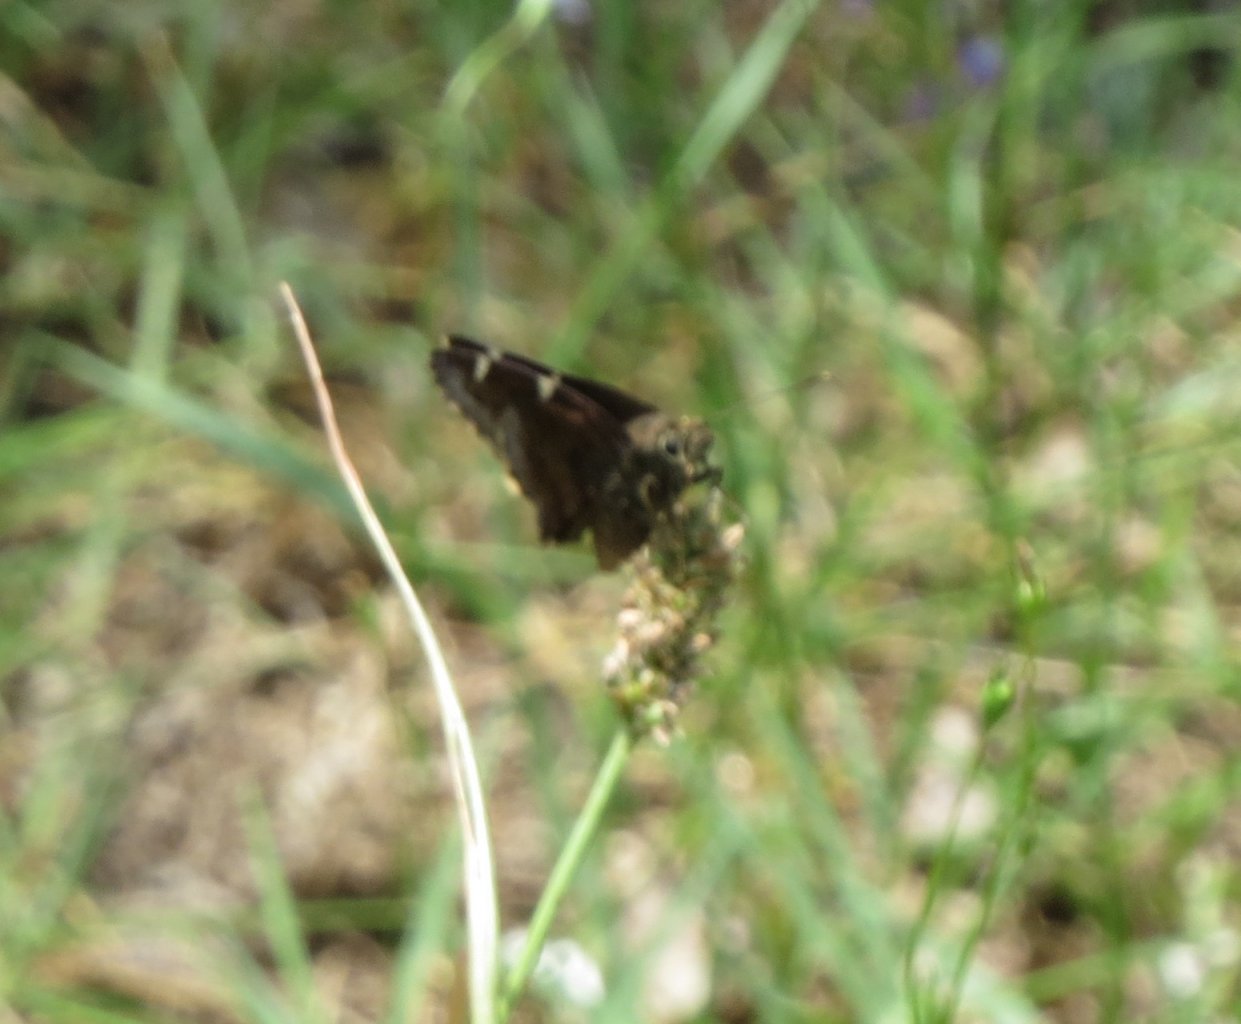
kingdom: Animalia
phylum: Arthropoda
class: Insecta
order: Lepidoptera
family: Hesperiidae
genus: Autochton
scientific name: Autochton
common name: Northern Cloudywing
